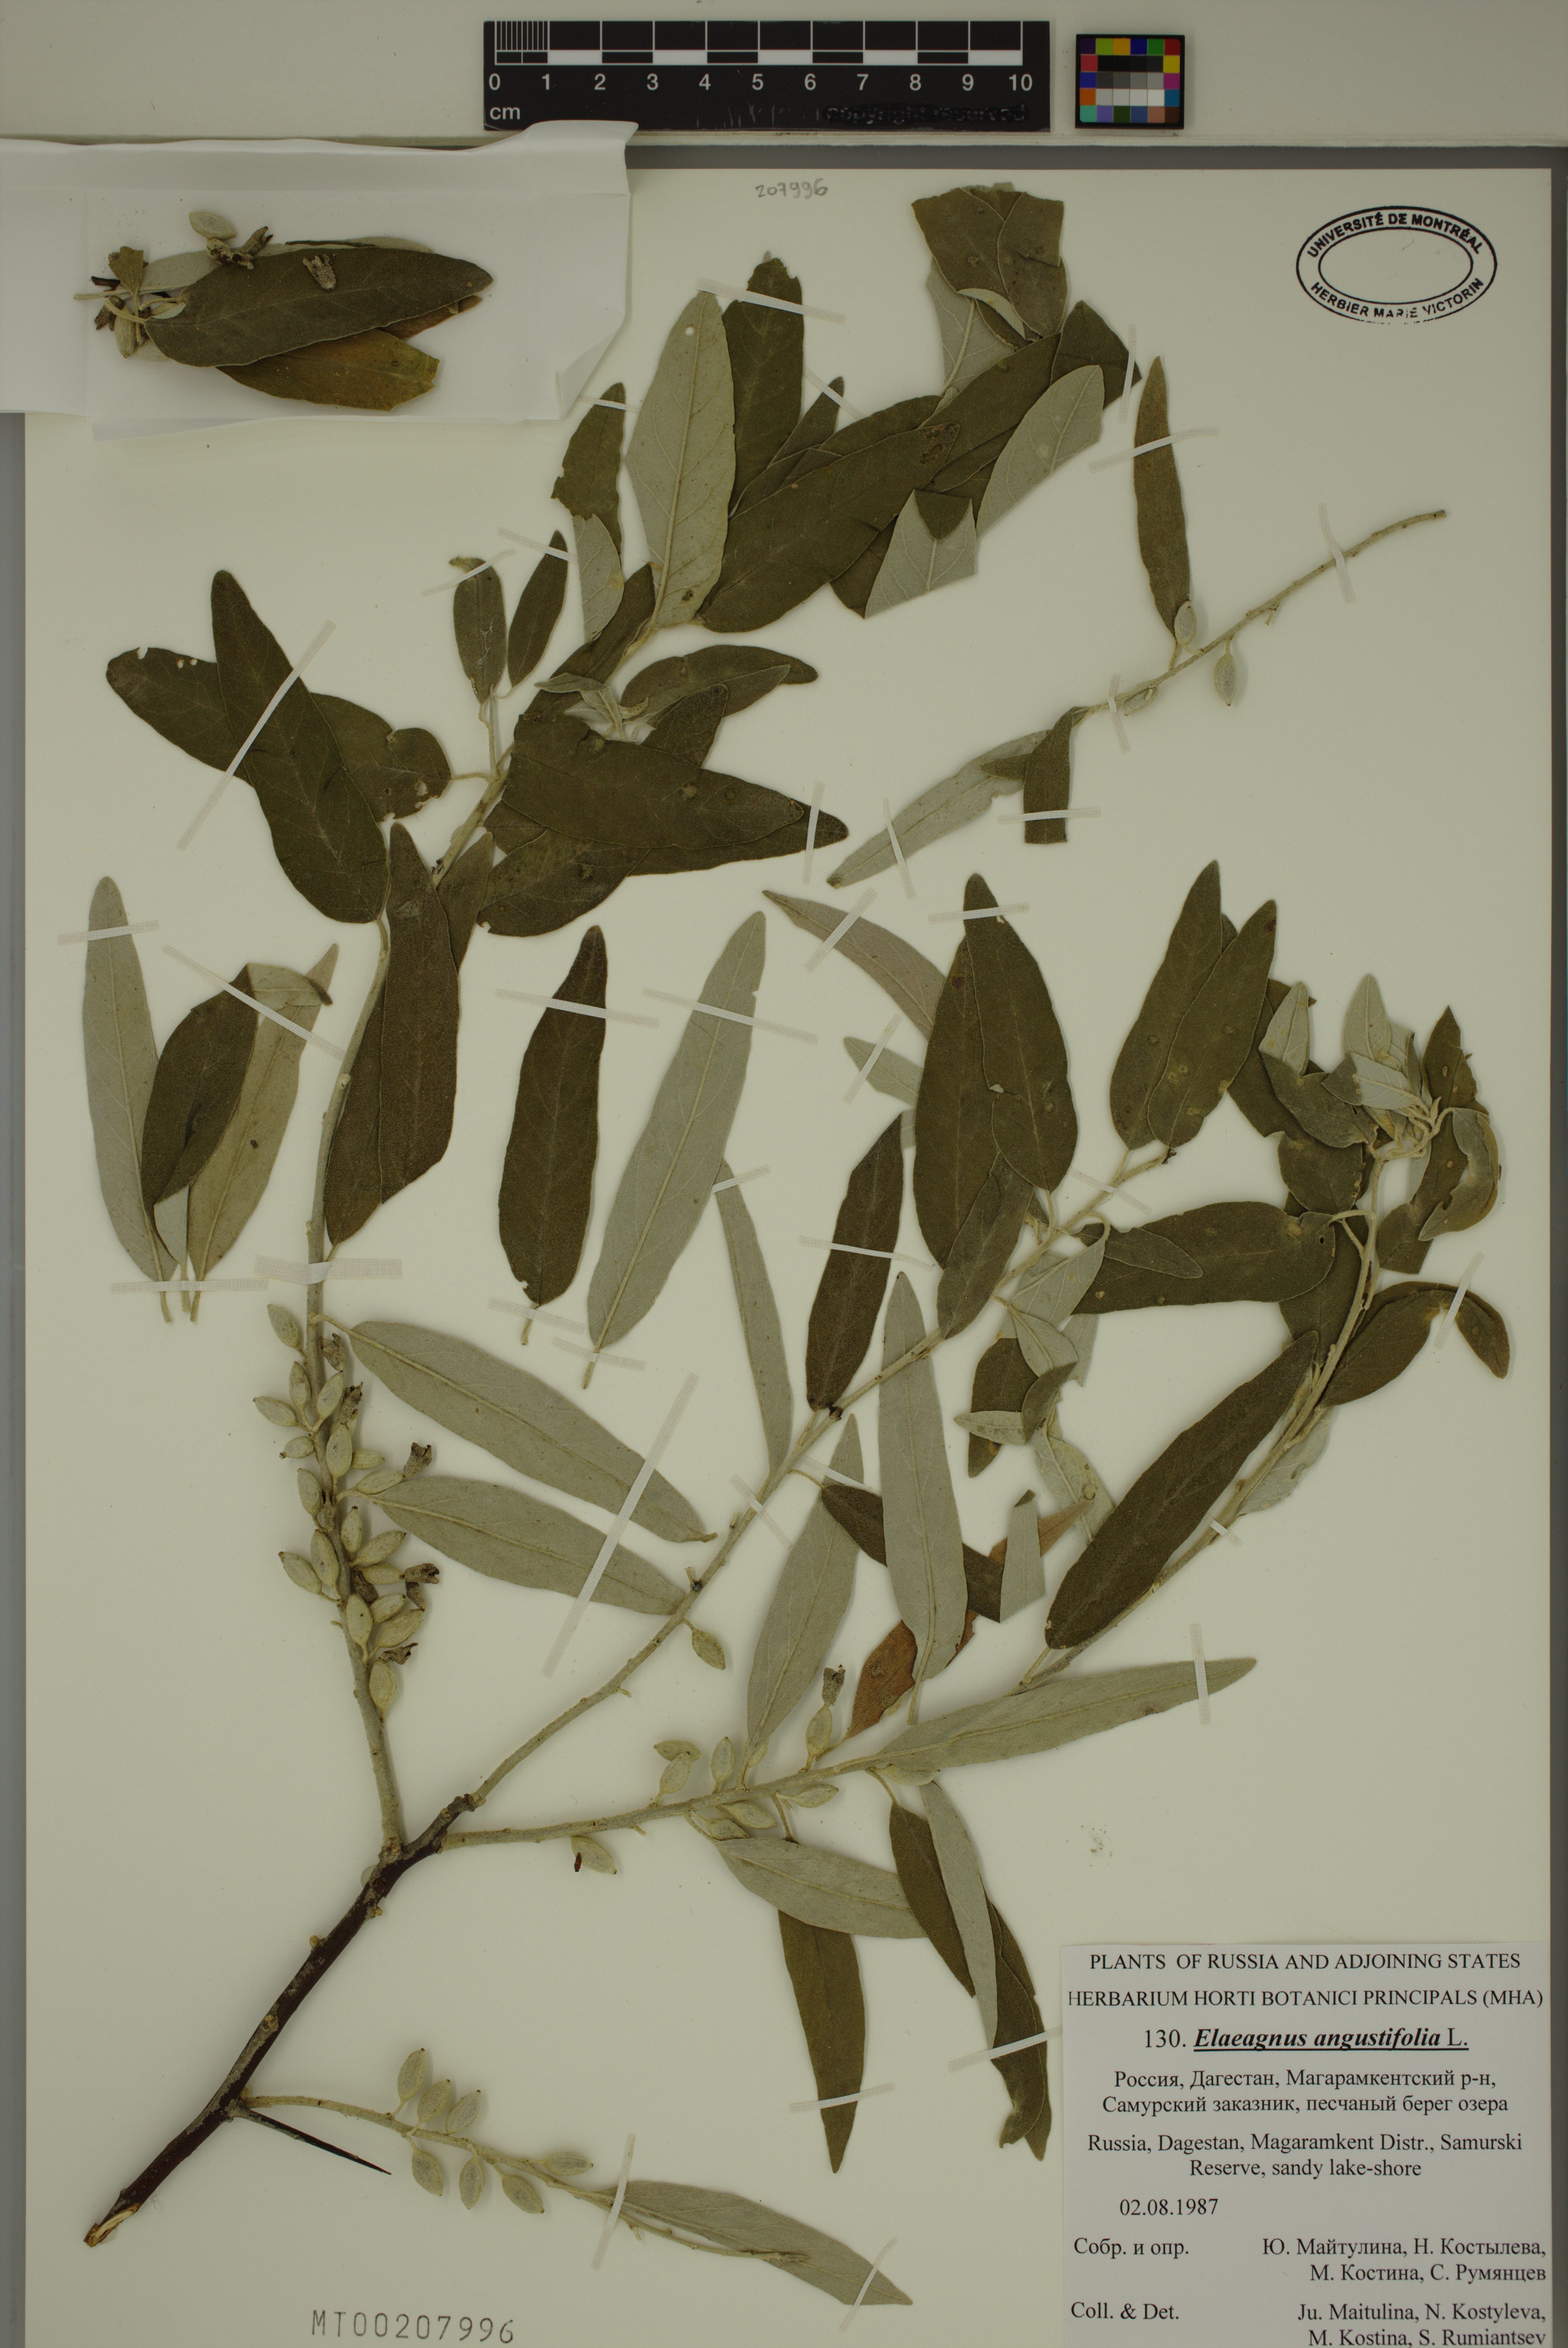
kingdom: Plantae
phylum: Tracheophyta
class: Magnoliopsida
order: Rosales
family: Elaeagnaceae
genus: Elaeagnus
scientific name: Elaeagnus angustifolia
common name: Russian olive
